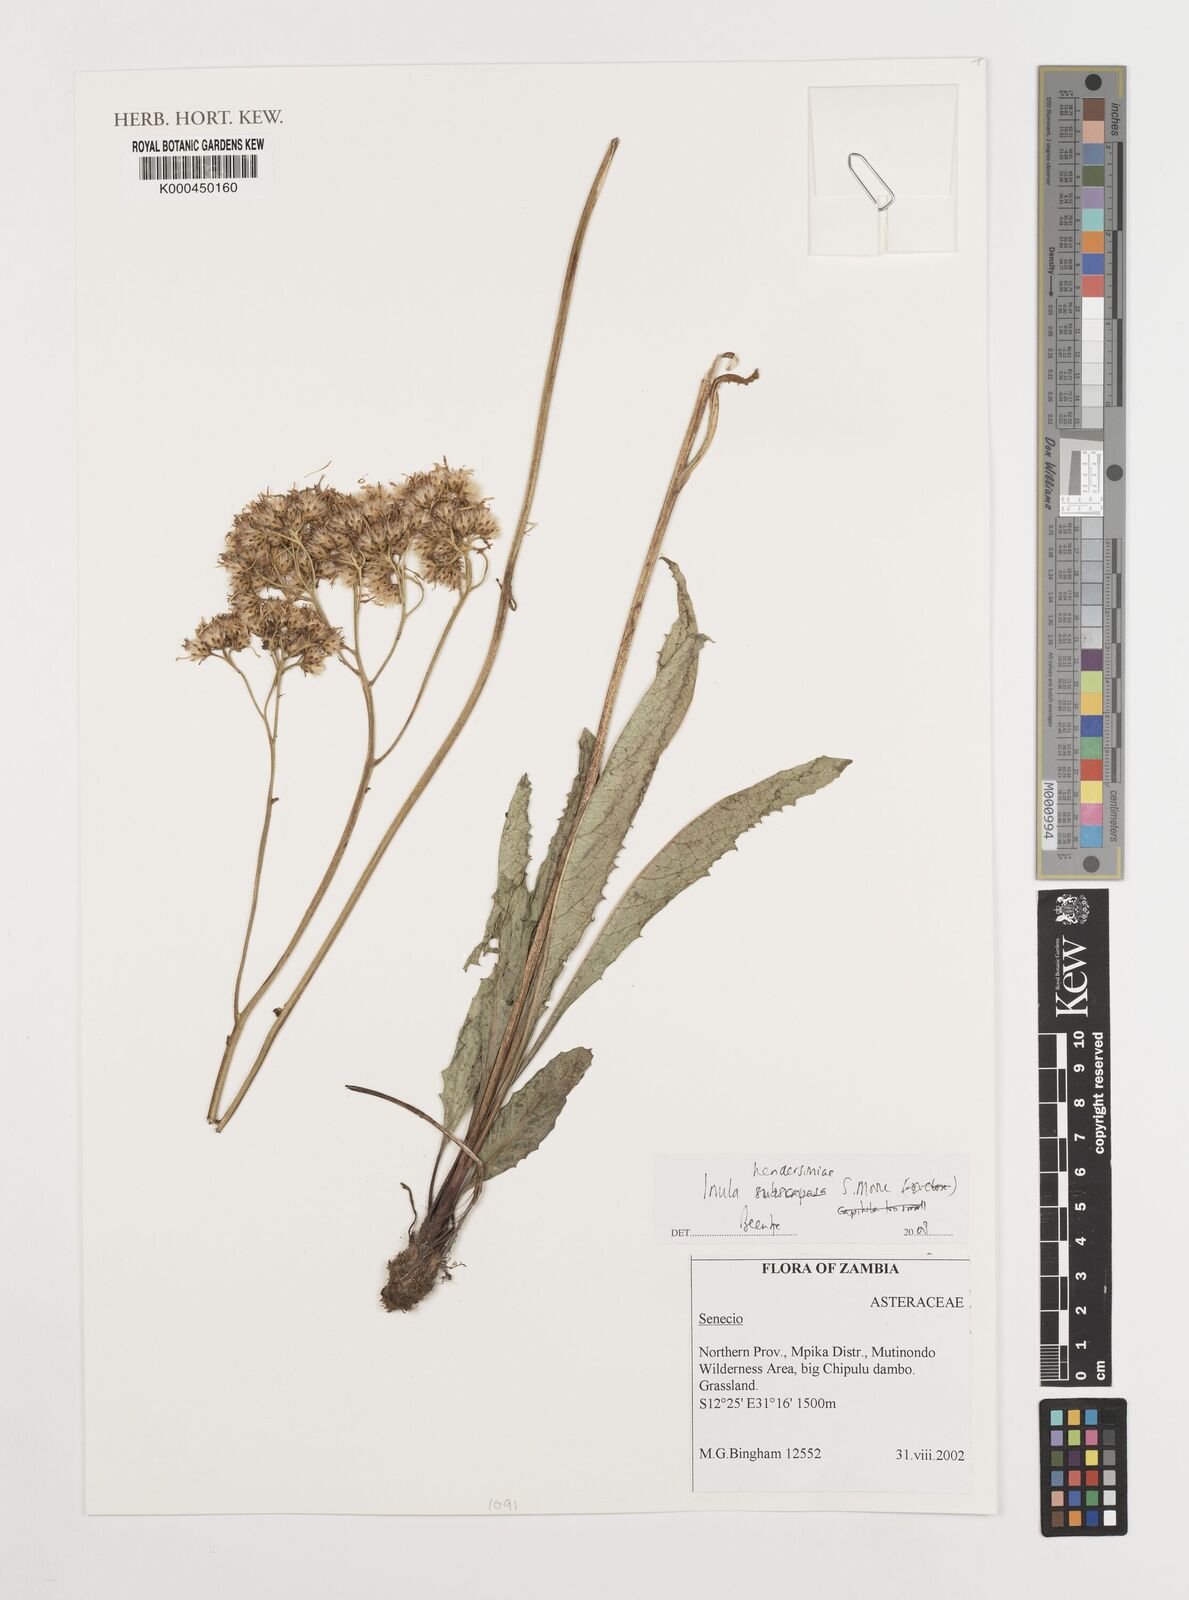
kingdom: Plantae
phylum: Tracheophyta
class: Magnoliopsida
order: Asterales
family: Asteraceae
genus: Inula
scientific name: Inula hendersoniae
